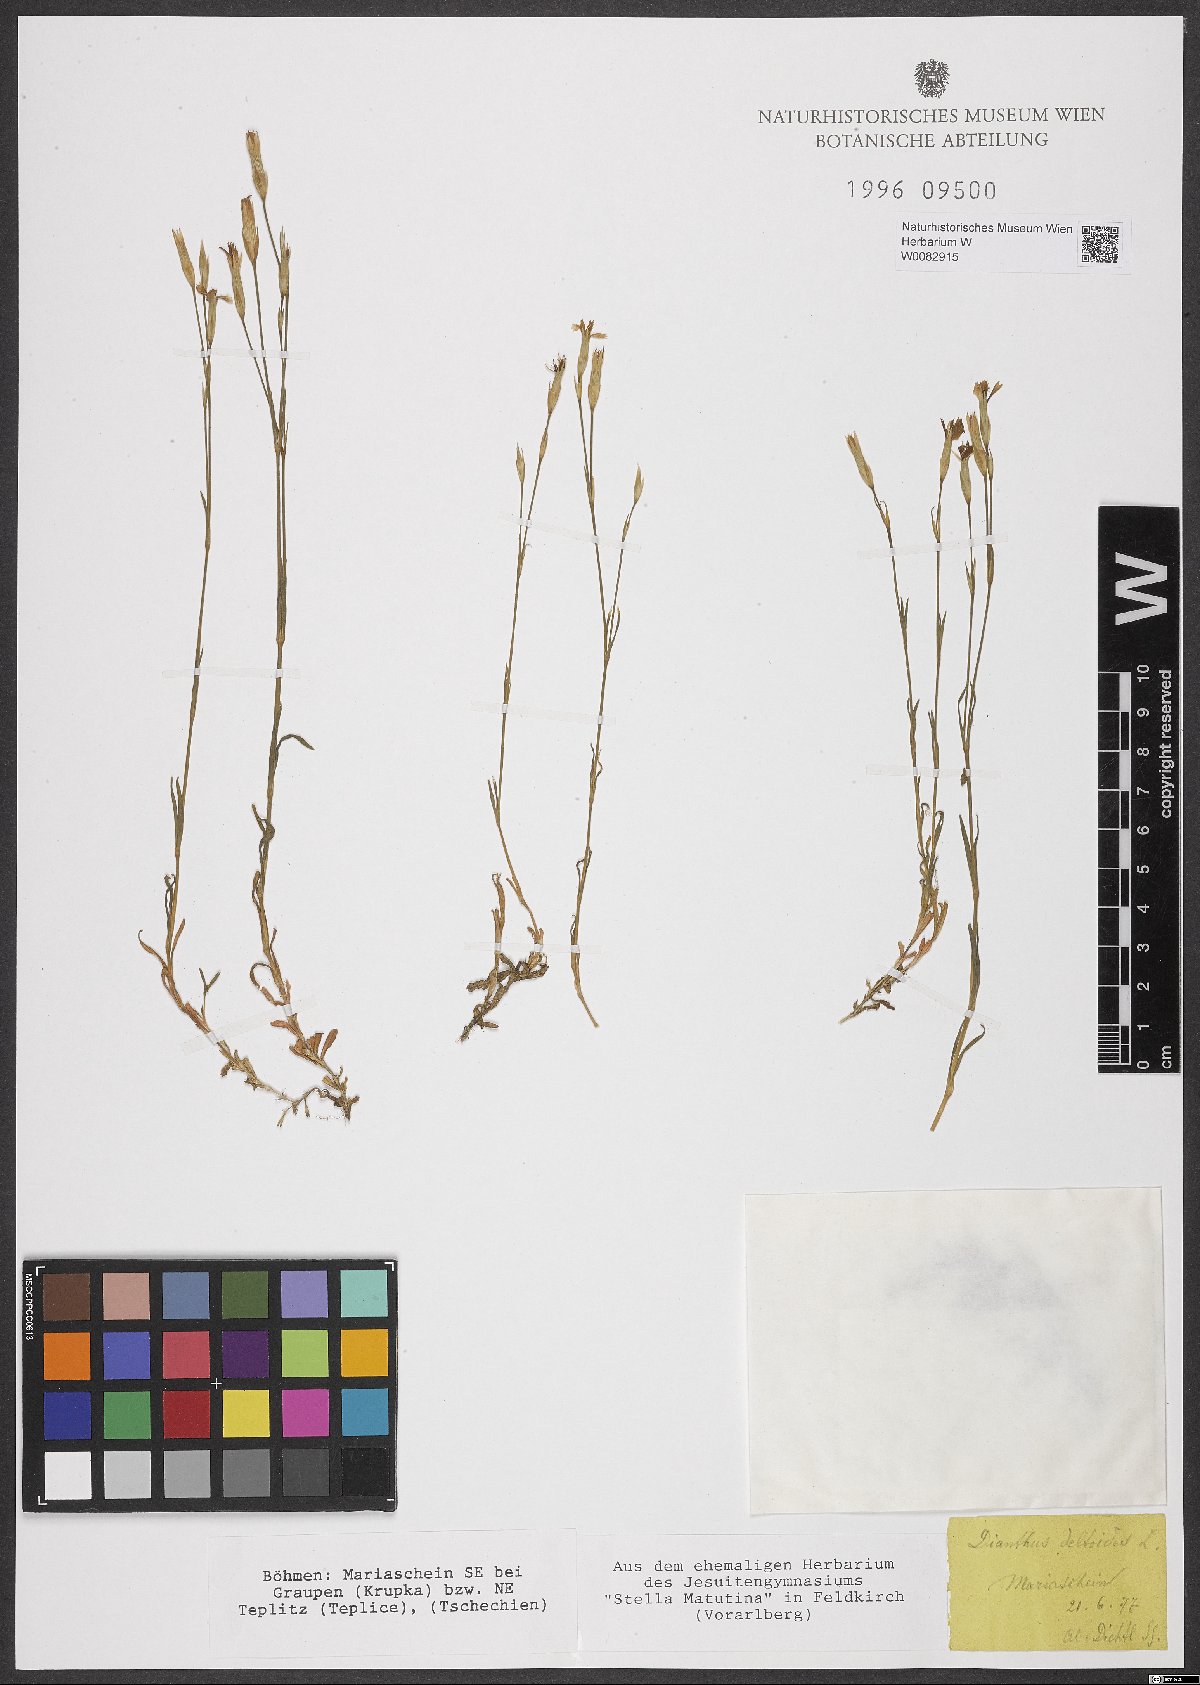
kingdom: Plantae
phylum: Tracheophyta
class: Magnoliopsida
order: Caryophyllales
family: Caryophyllaceae
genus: Dianthus
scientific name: Dianthus deltoides
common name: Maiden pink
